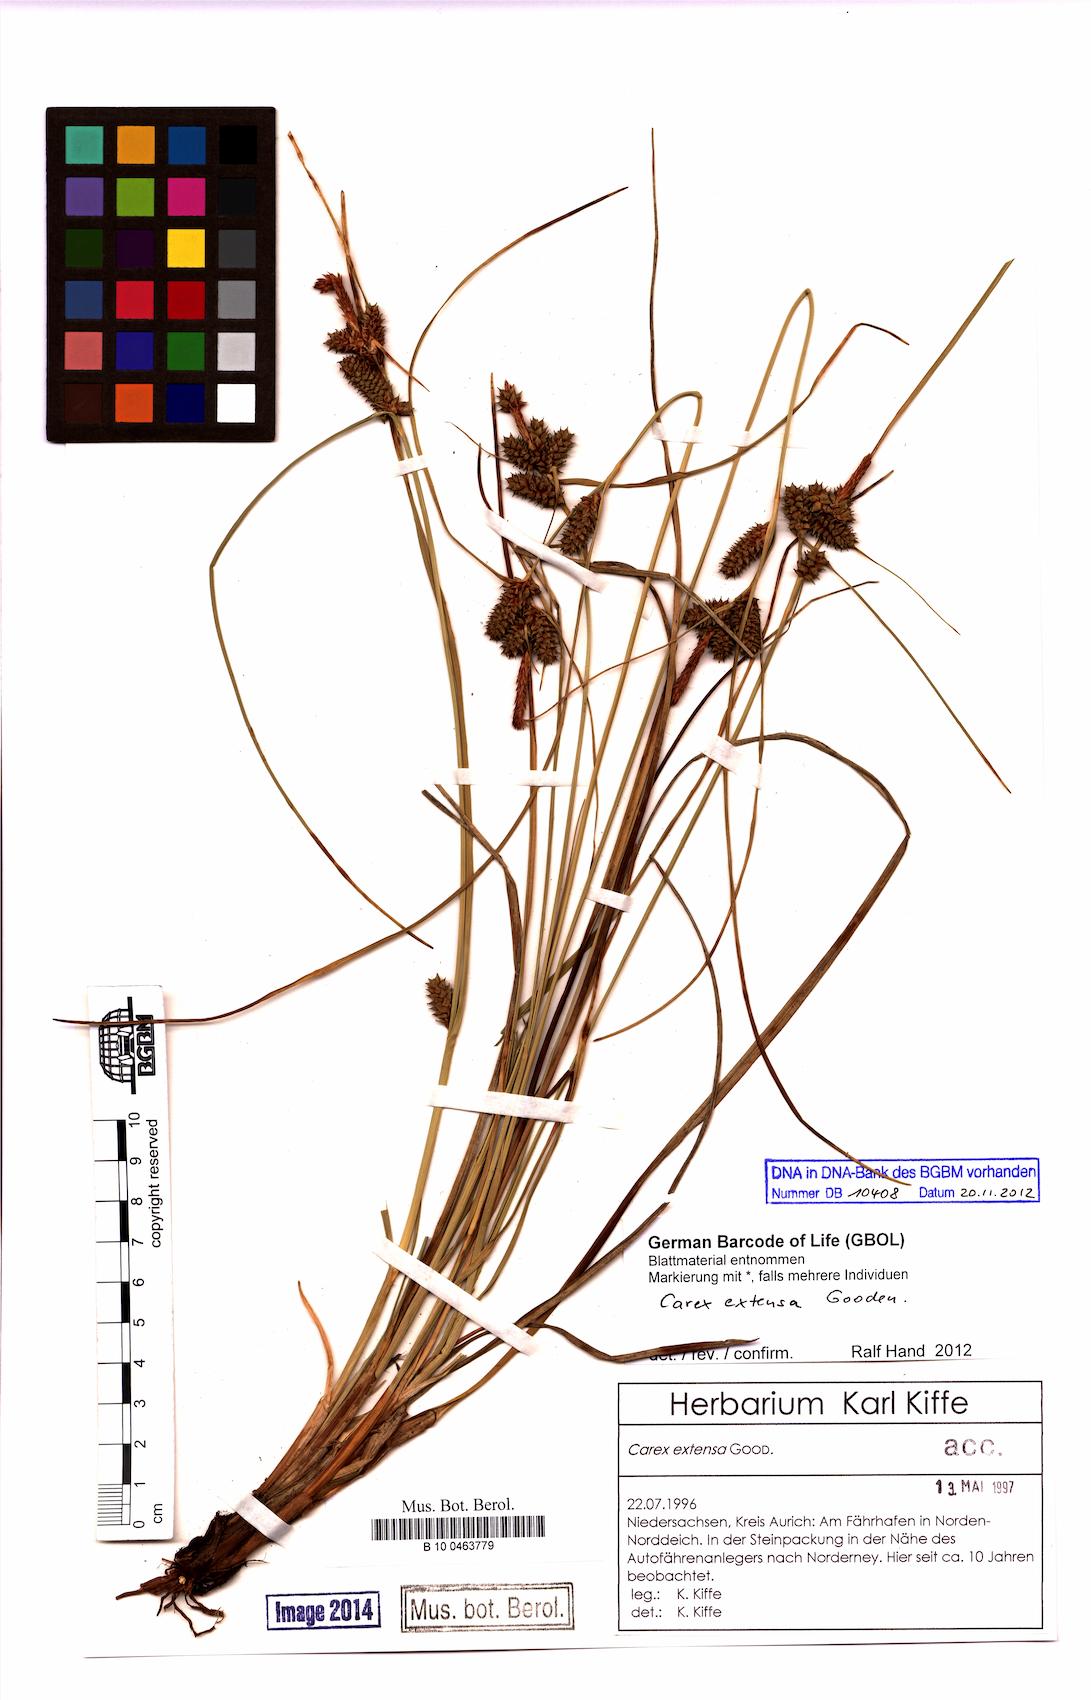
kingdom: Plantae
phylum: Tracheophyta
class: Liliopsida
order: Poales
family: Cyperaceae
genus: Carex
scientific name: Carex extensa
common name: Long-bracted sedge
